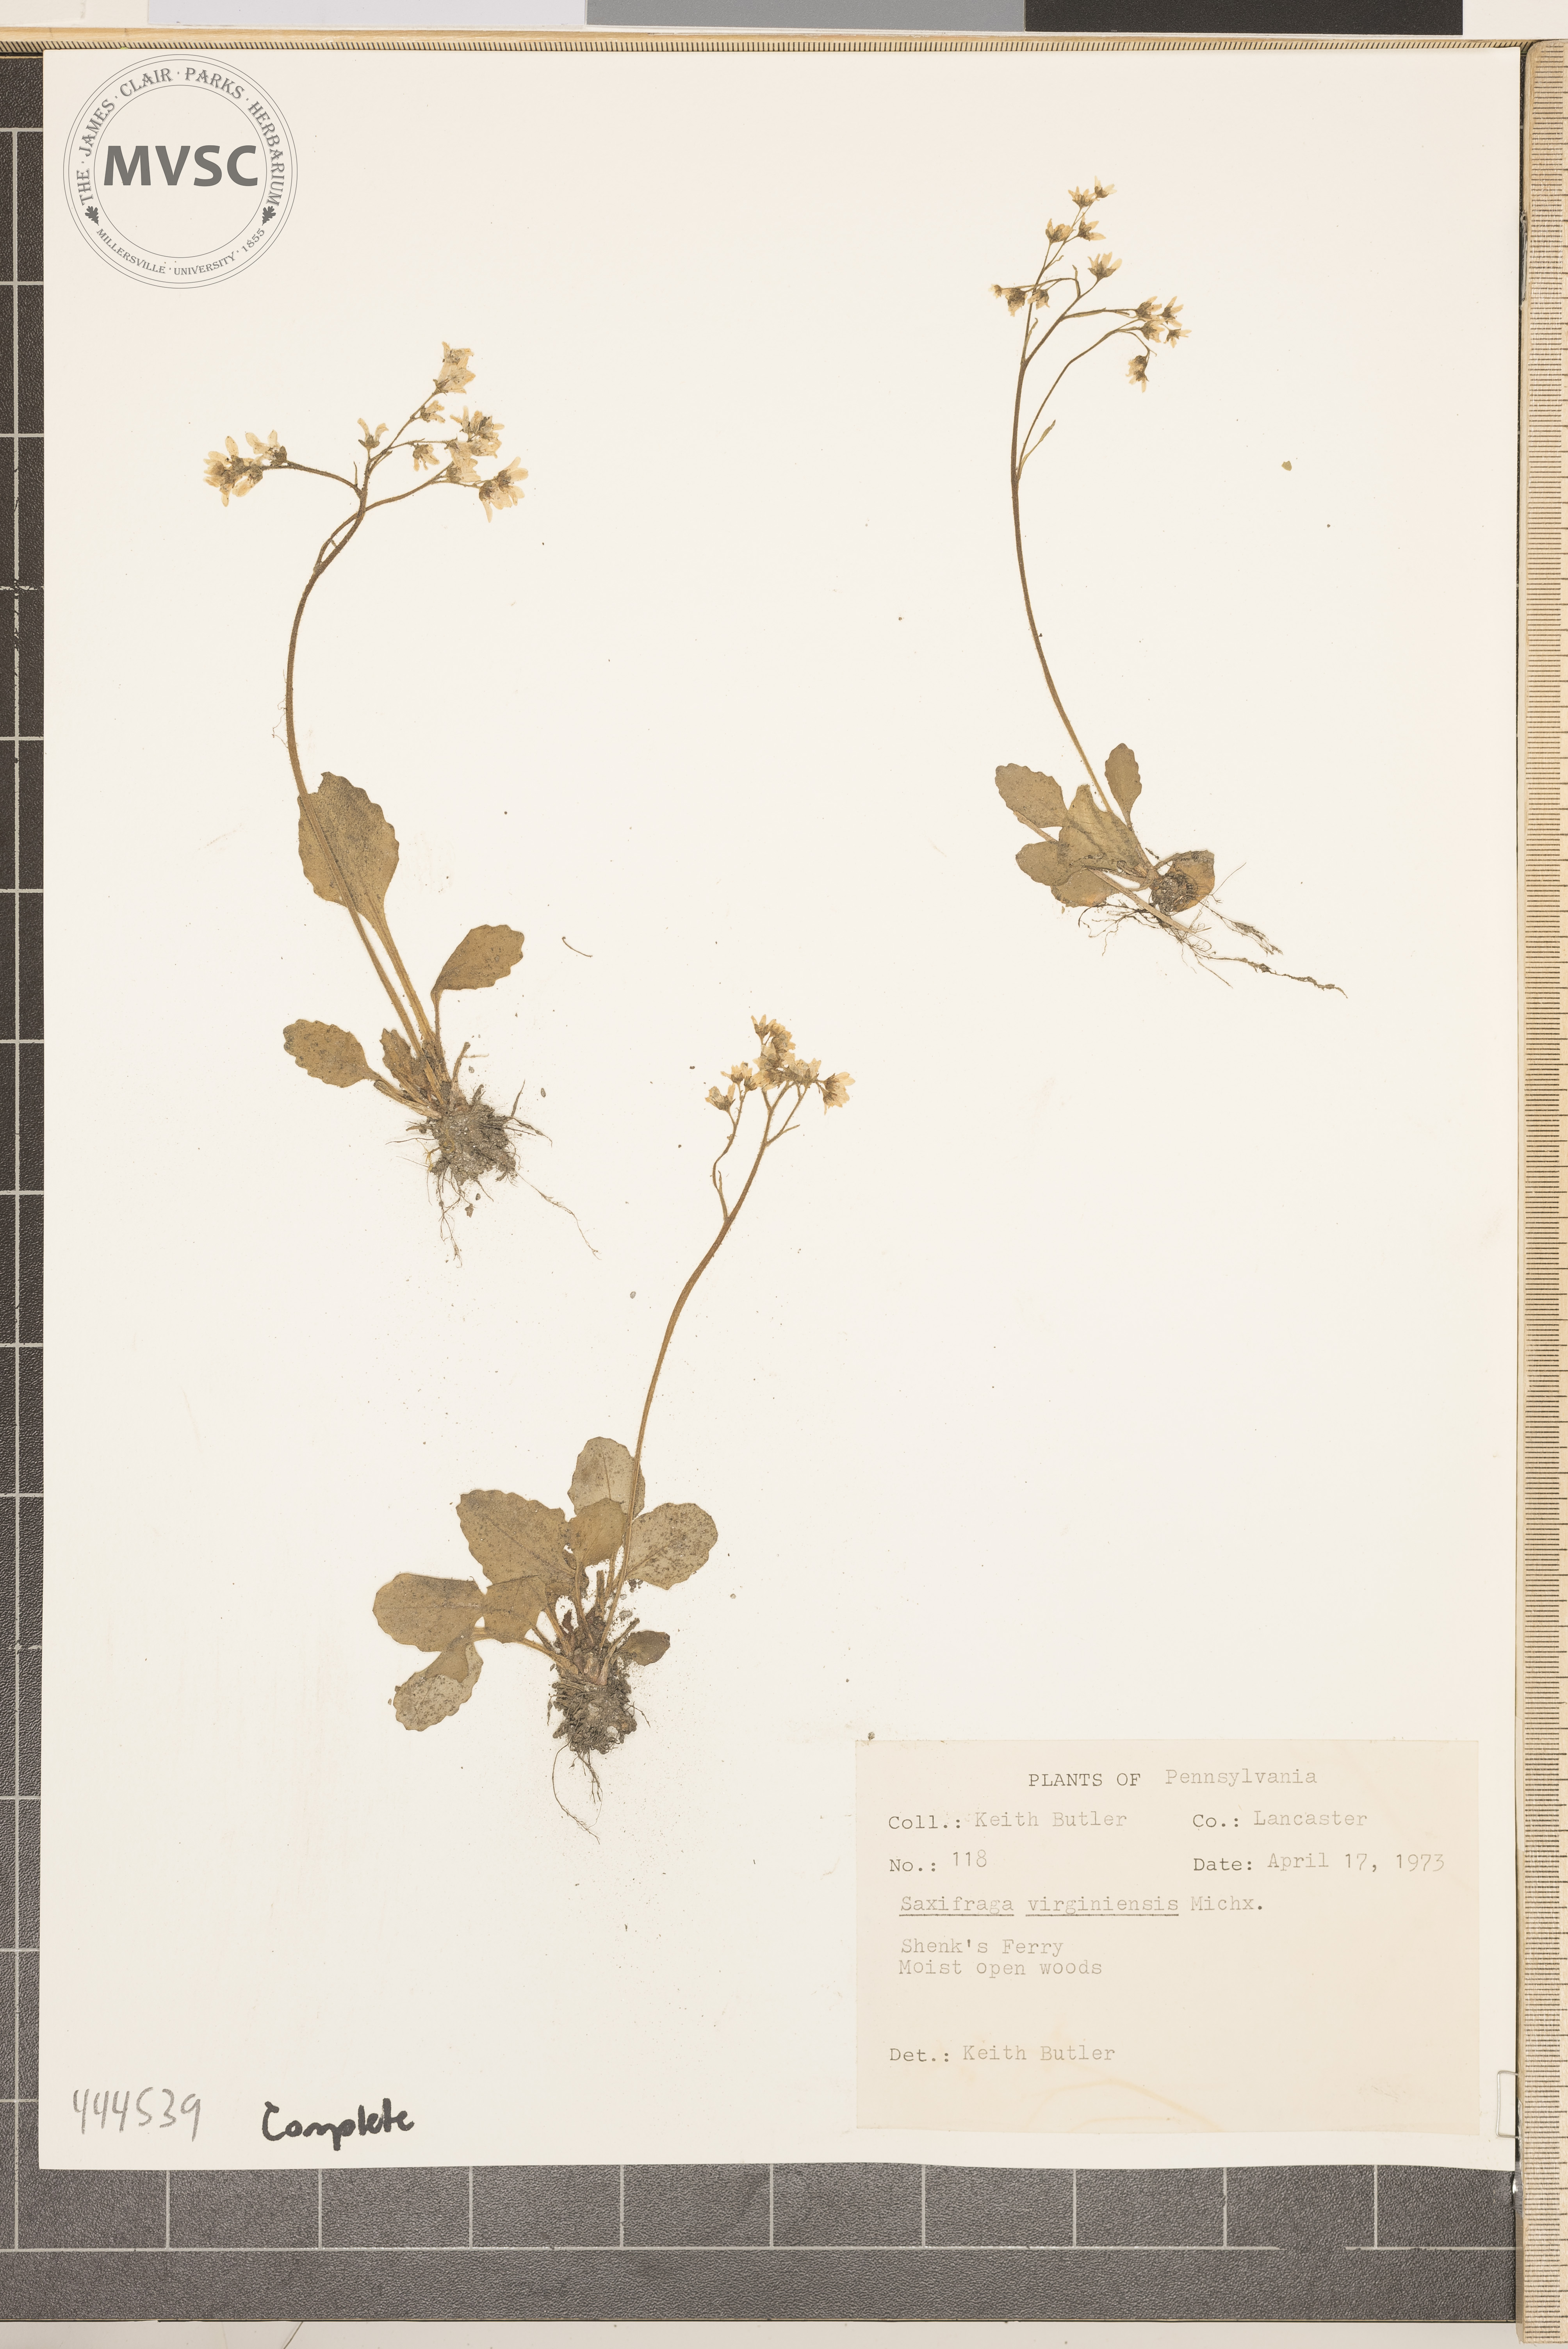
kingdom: Plantae
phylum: Tracheophyta
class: Magnoliopsida
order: Saxifragales
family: Saxifragaceae
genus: Micranthes
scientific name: Micranthes virginiensis
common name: Early saxifrage
